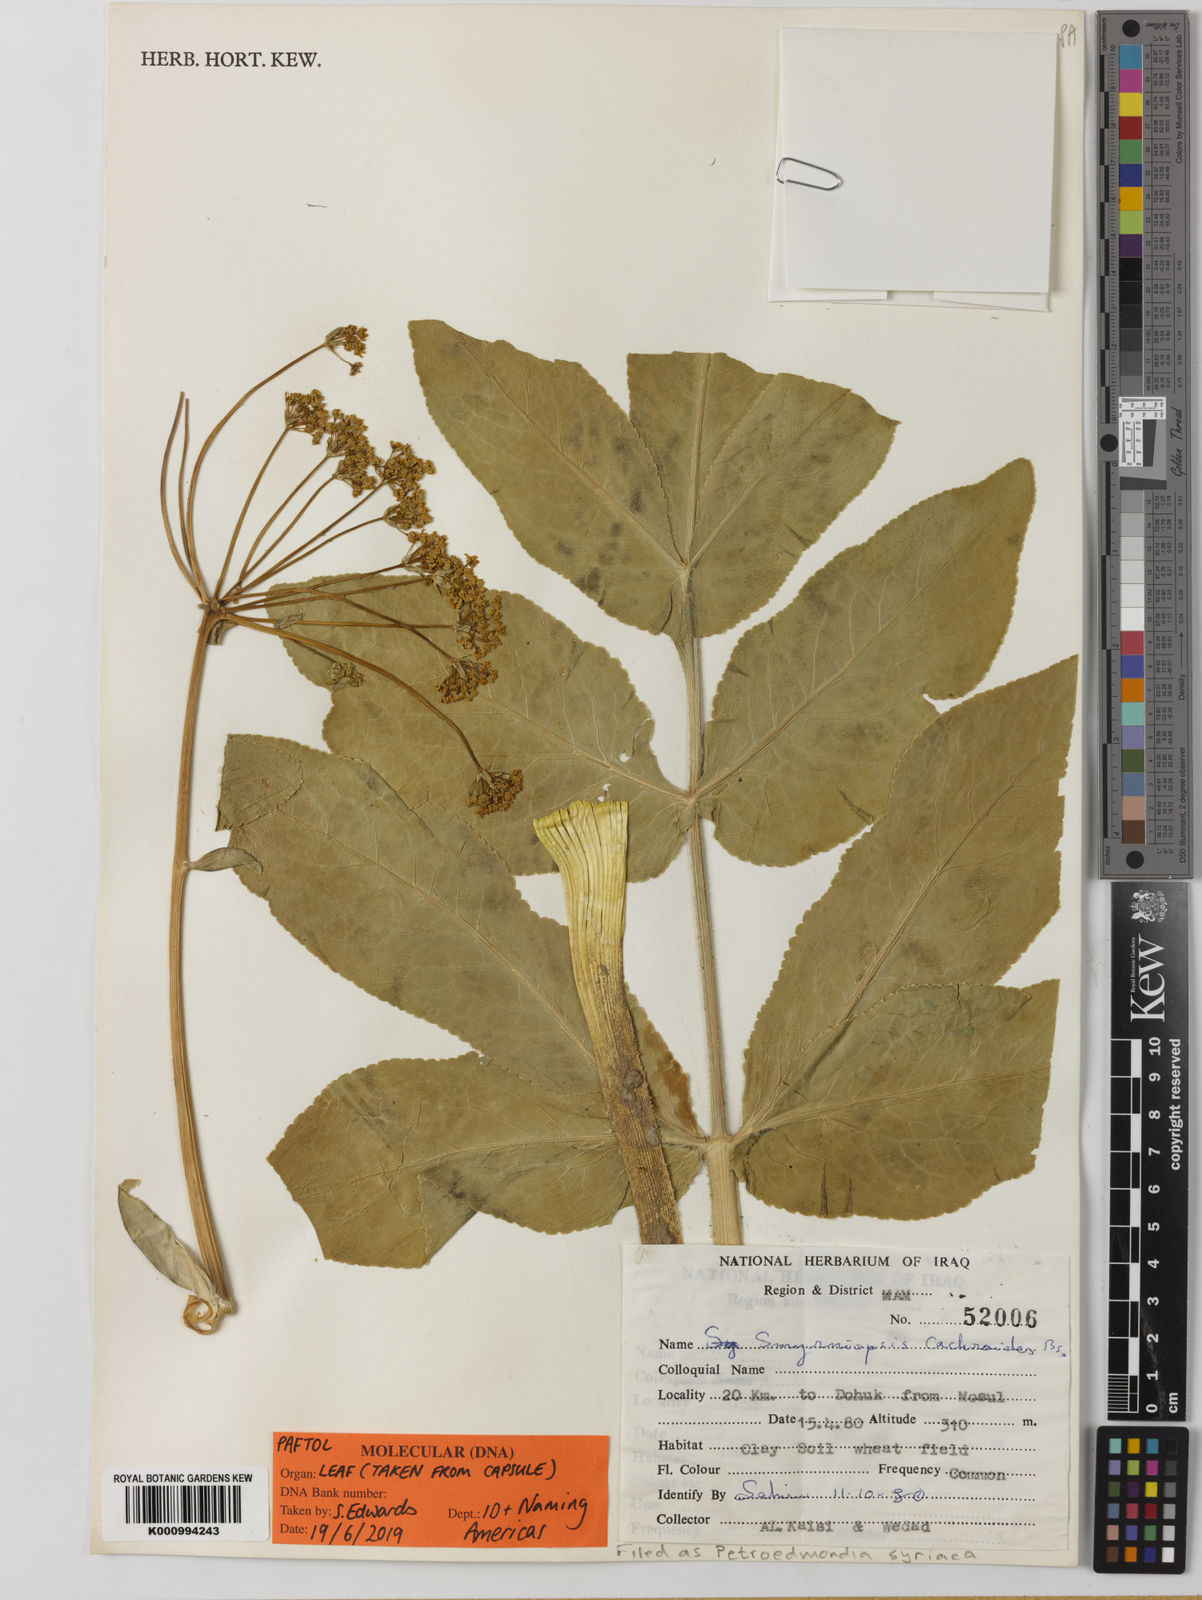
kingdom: Plantae
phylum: Tracheophyta
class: Magnoliopsida
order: Apiales
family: Apiaceae
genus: Petroedmondia
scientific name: Petroedmondia syriaca
